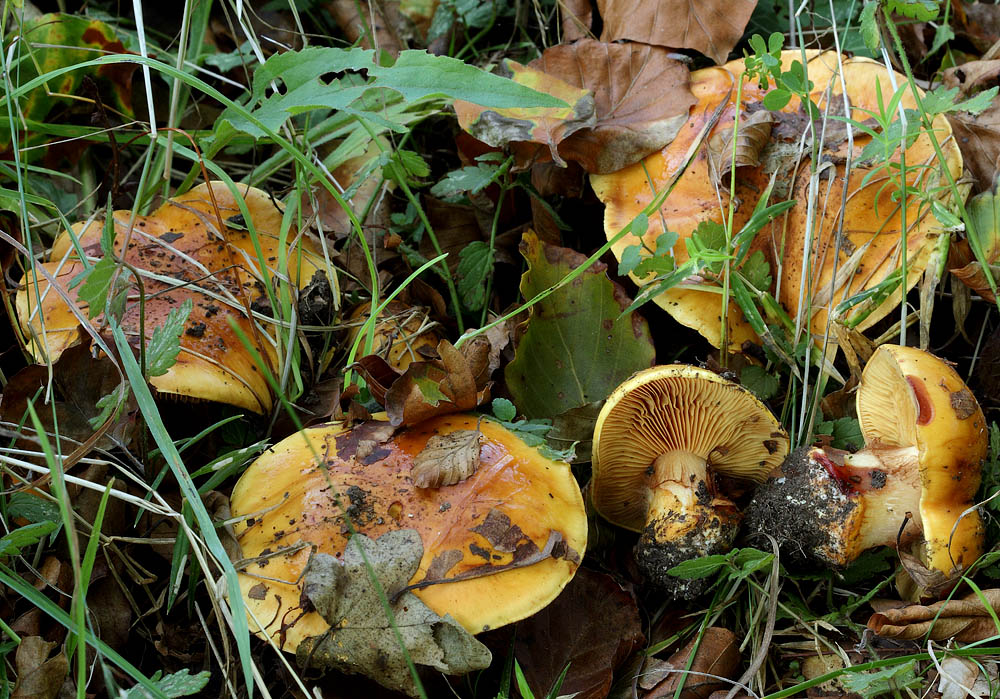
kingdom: Fungi
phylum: Basidiomycota
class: Agaricomycetes
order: Agaricales
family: Cortinariaceae
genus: Calonarius
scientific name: Calonarius olearioides
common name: safran-slørhat
